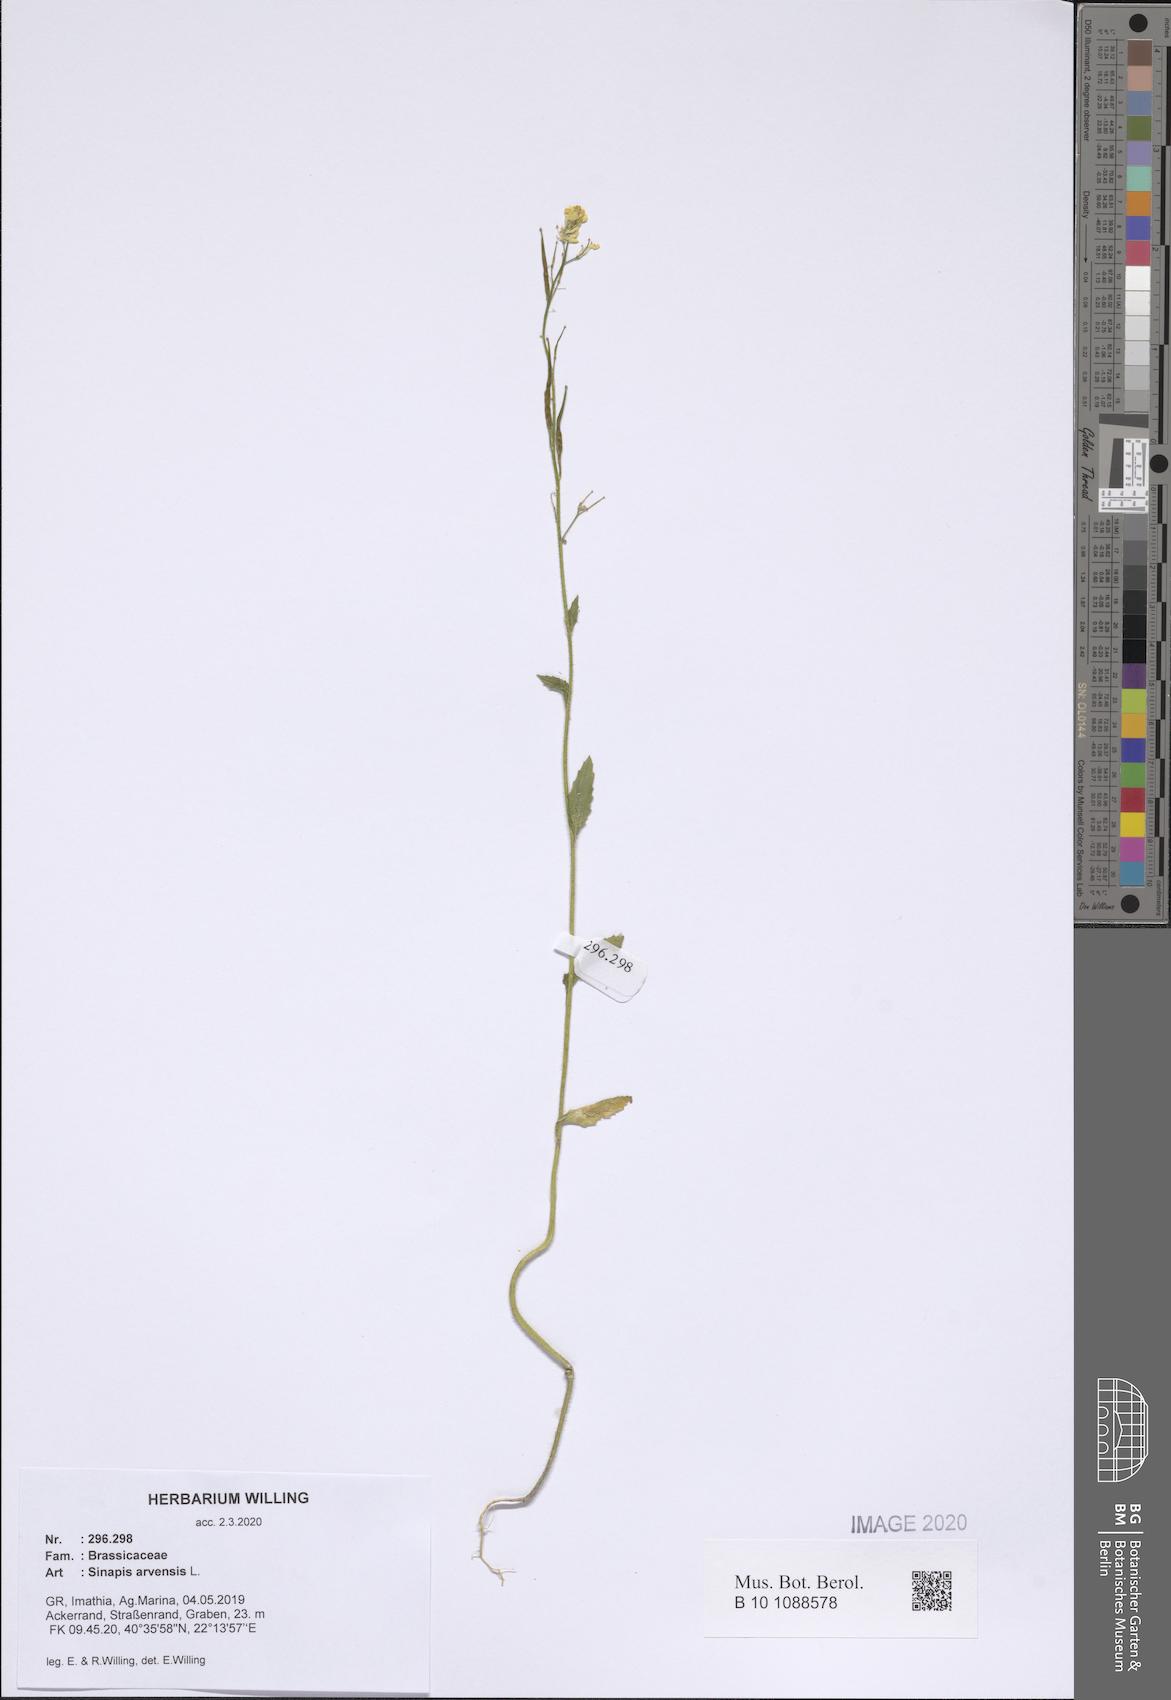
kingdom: Plantae
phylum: Tracheophyta
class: Magnoliopsida
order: Brassicales
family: Brassicaceae
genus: Sinapis
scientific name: Sinapis arvensis
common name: Charlock
